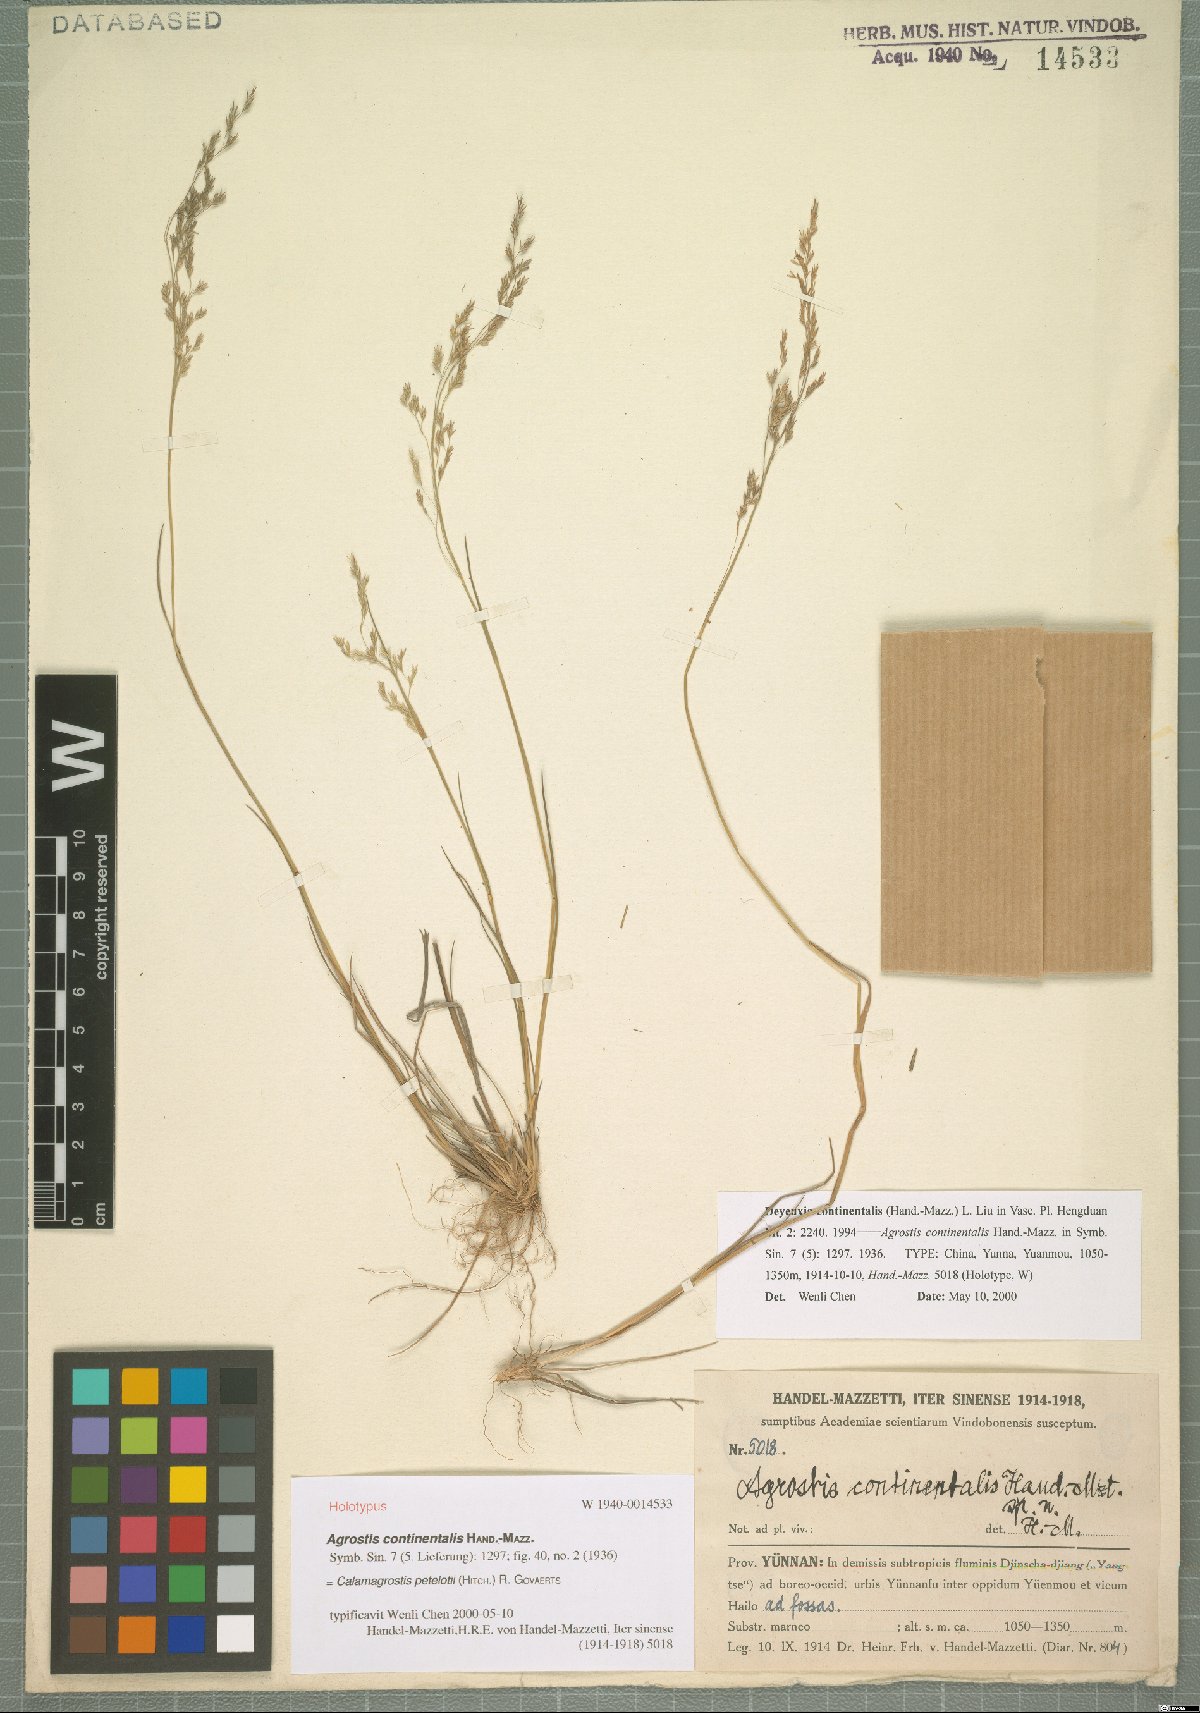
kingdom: Plantae
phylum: Tracheophyta
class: Liliopsida
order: Poales
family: Poaceae
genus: Calamagrostis
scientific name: Calamagrostis abnormis
